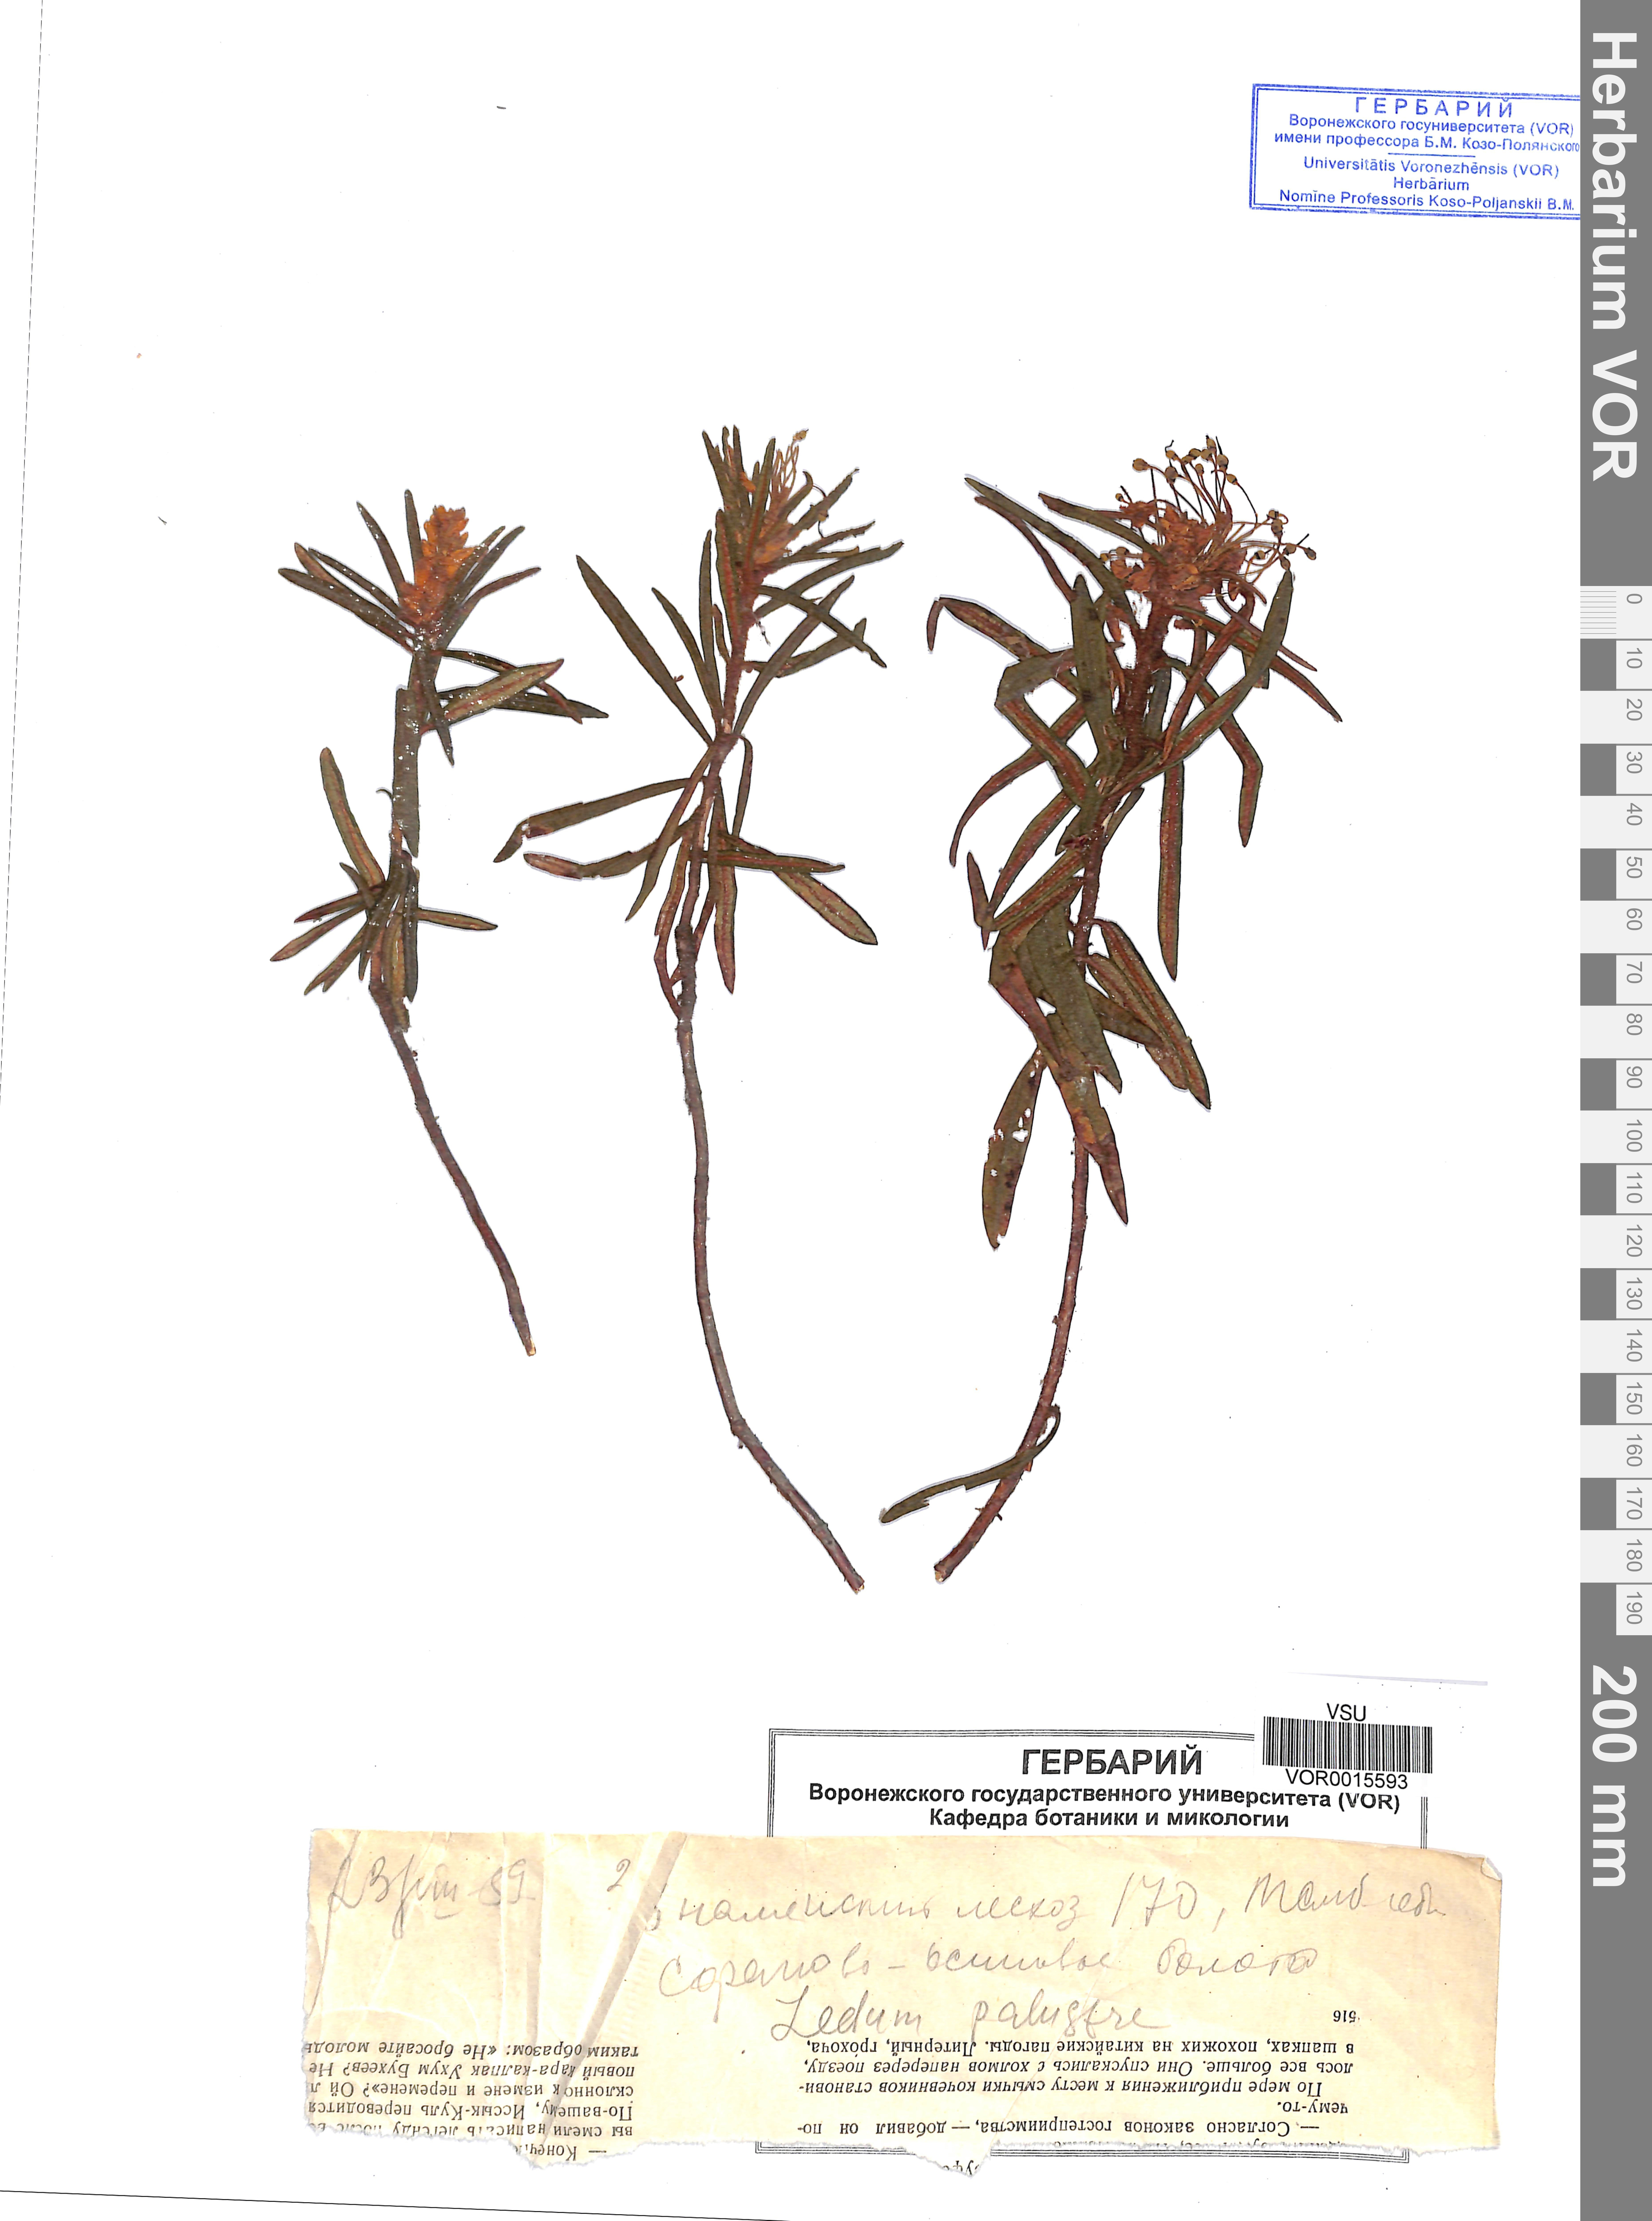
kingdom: Plantae
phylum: Tracheophyta
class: Magnoliopsida
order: Ericales
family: Ericaceae
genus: Rhododendron
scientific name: Rhododendron tomentosum
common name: Marsh labrador tea
